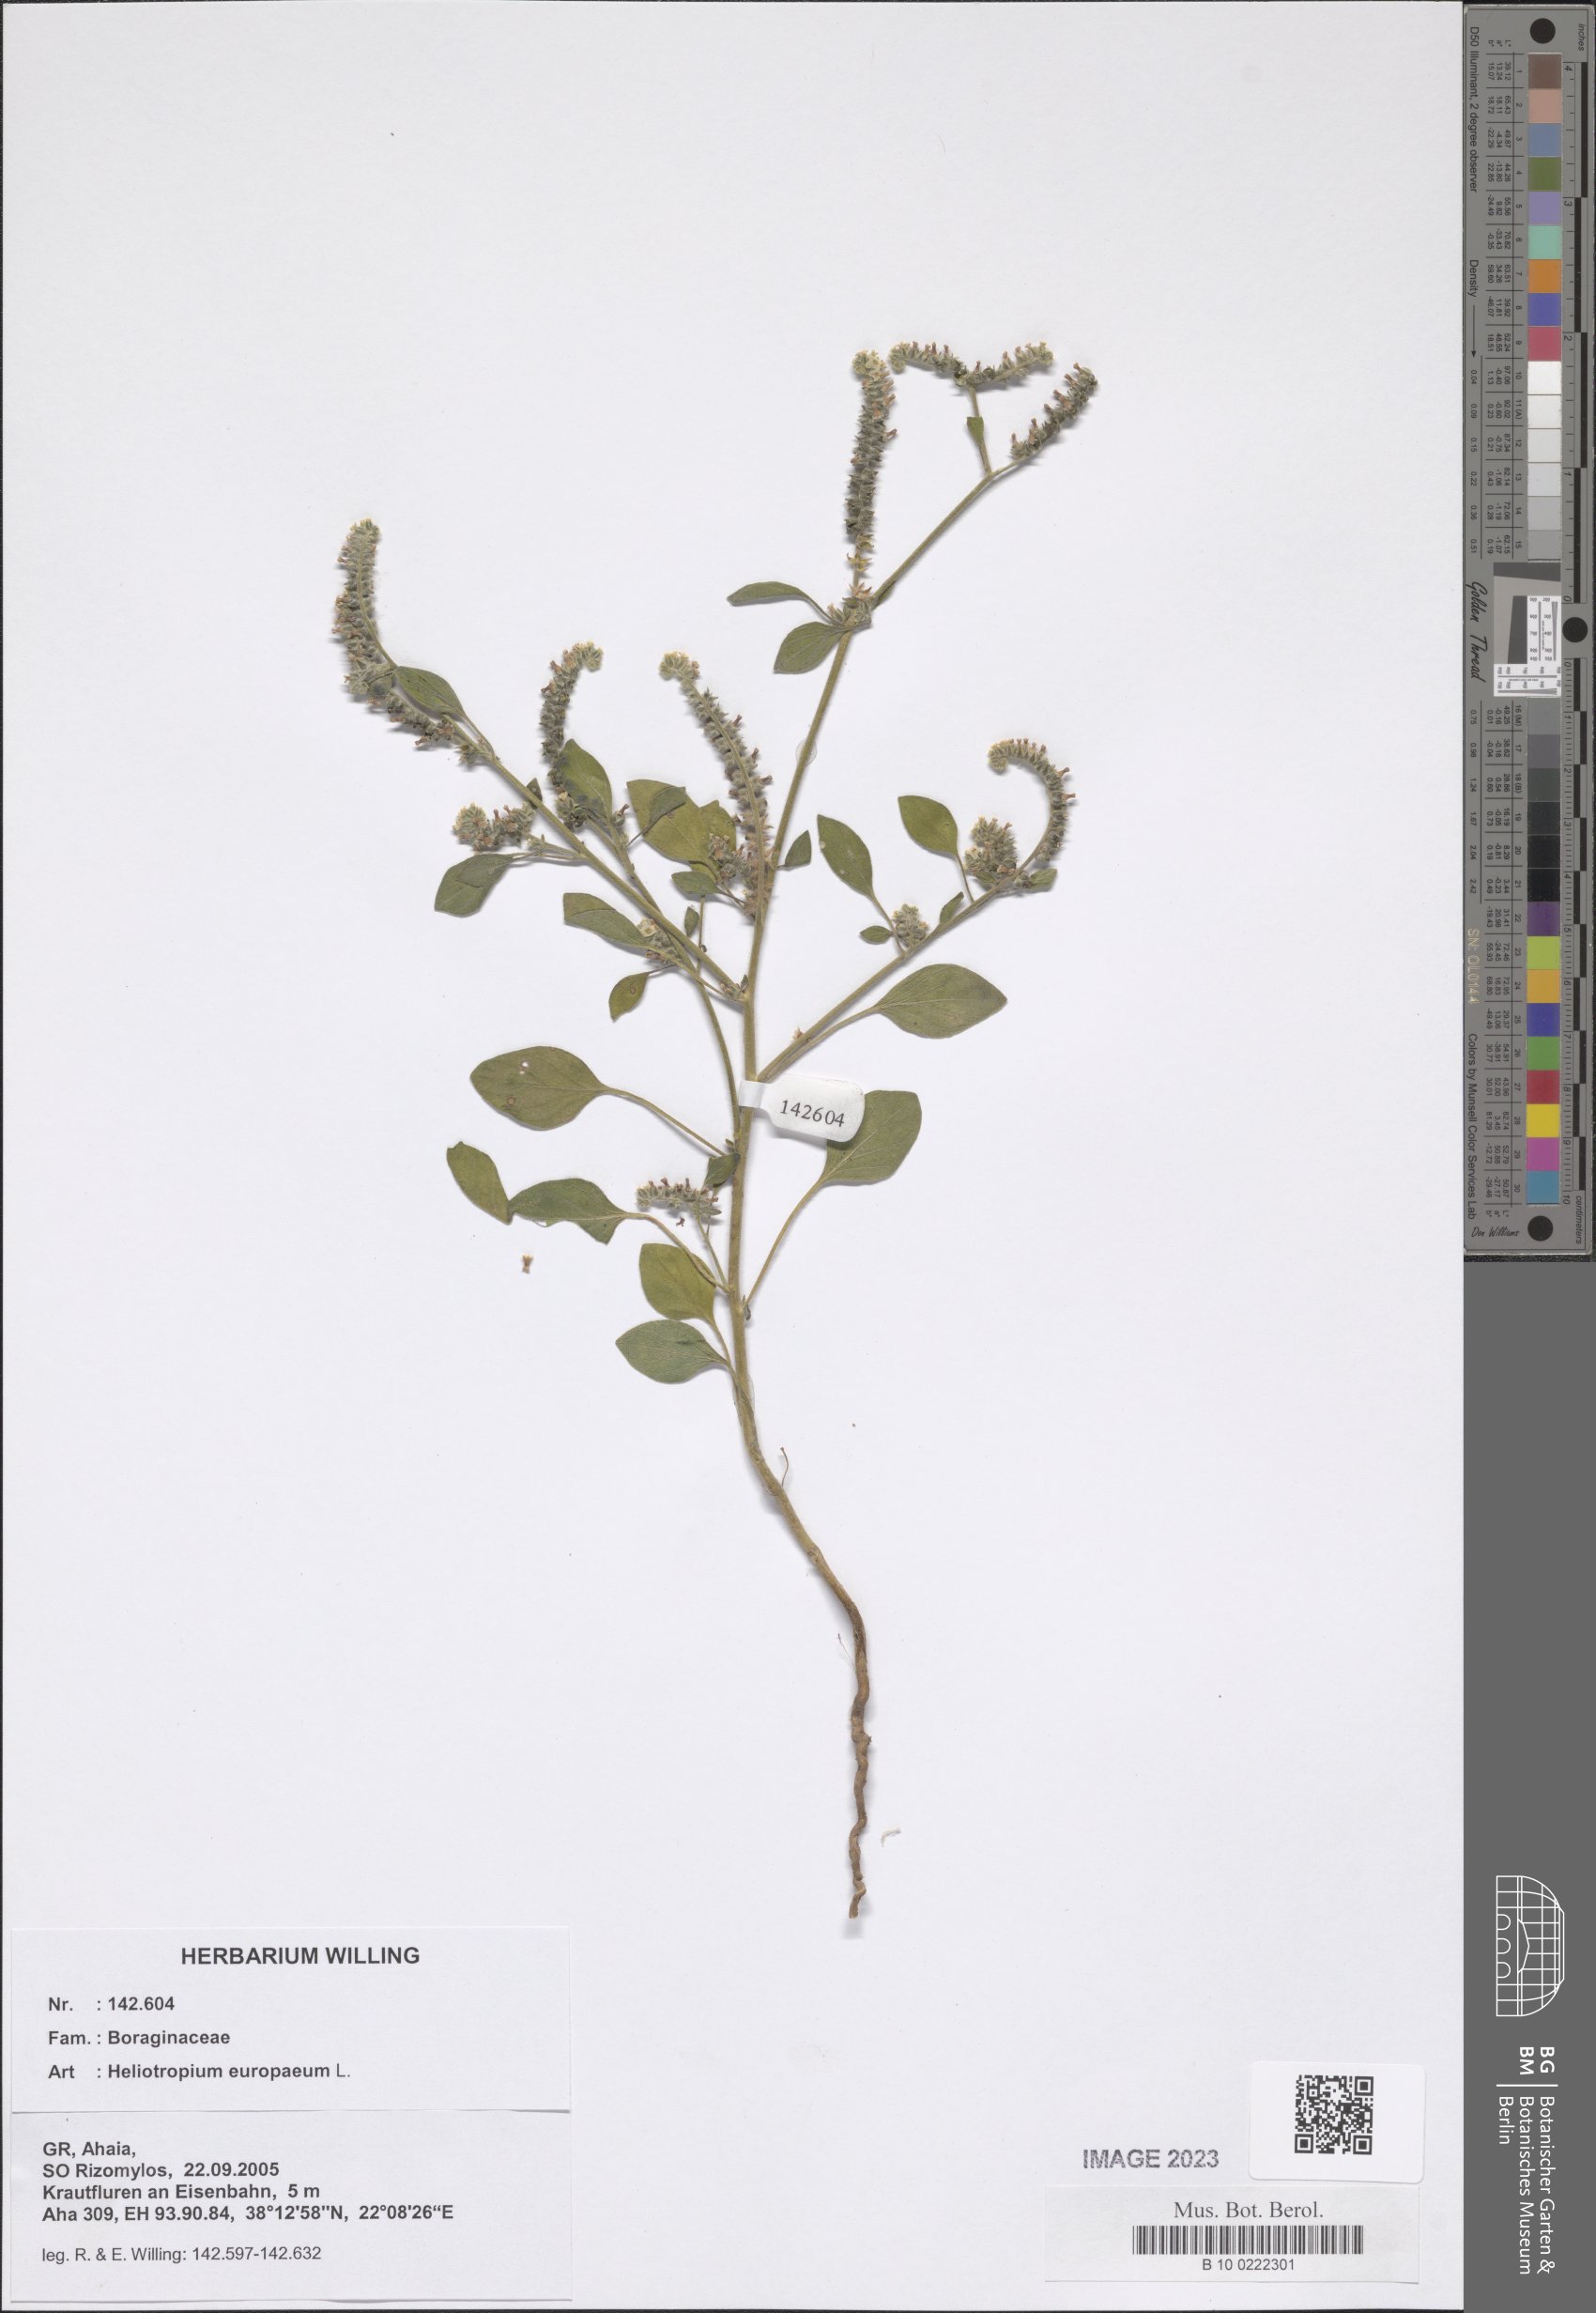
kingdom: Plantae
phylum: Tracheophyta
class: Magnoliopsida
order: Boraginales
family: Heliotropiaceae
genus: Heliotropium
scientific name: Heliotropium europaeum
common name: European heliotrope
